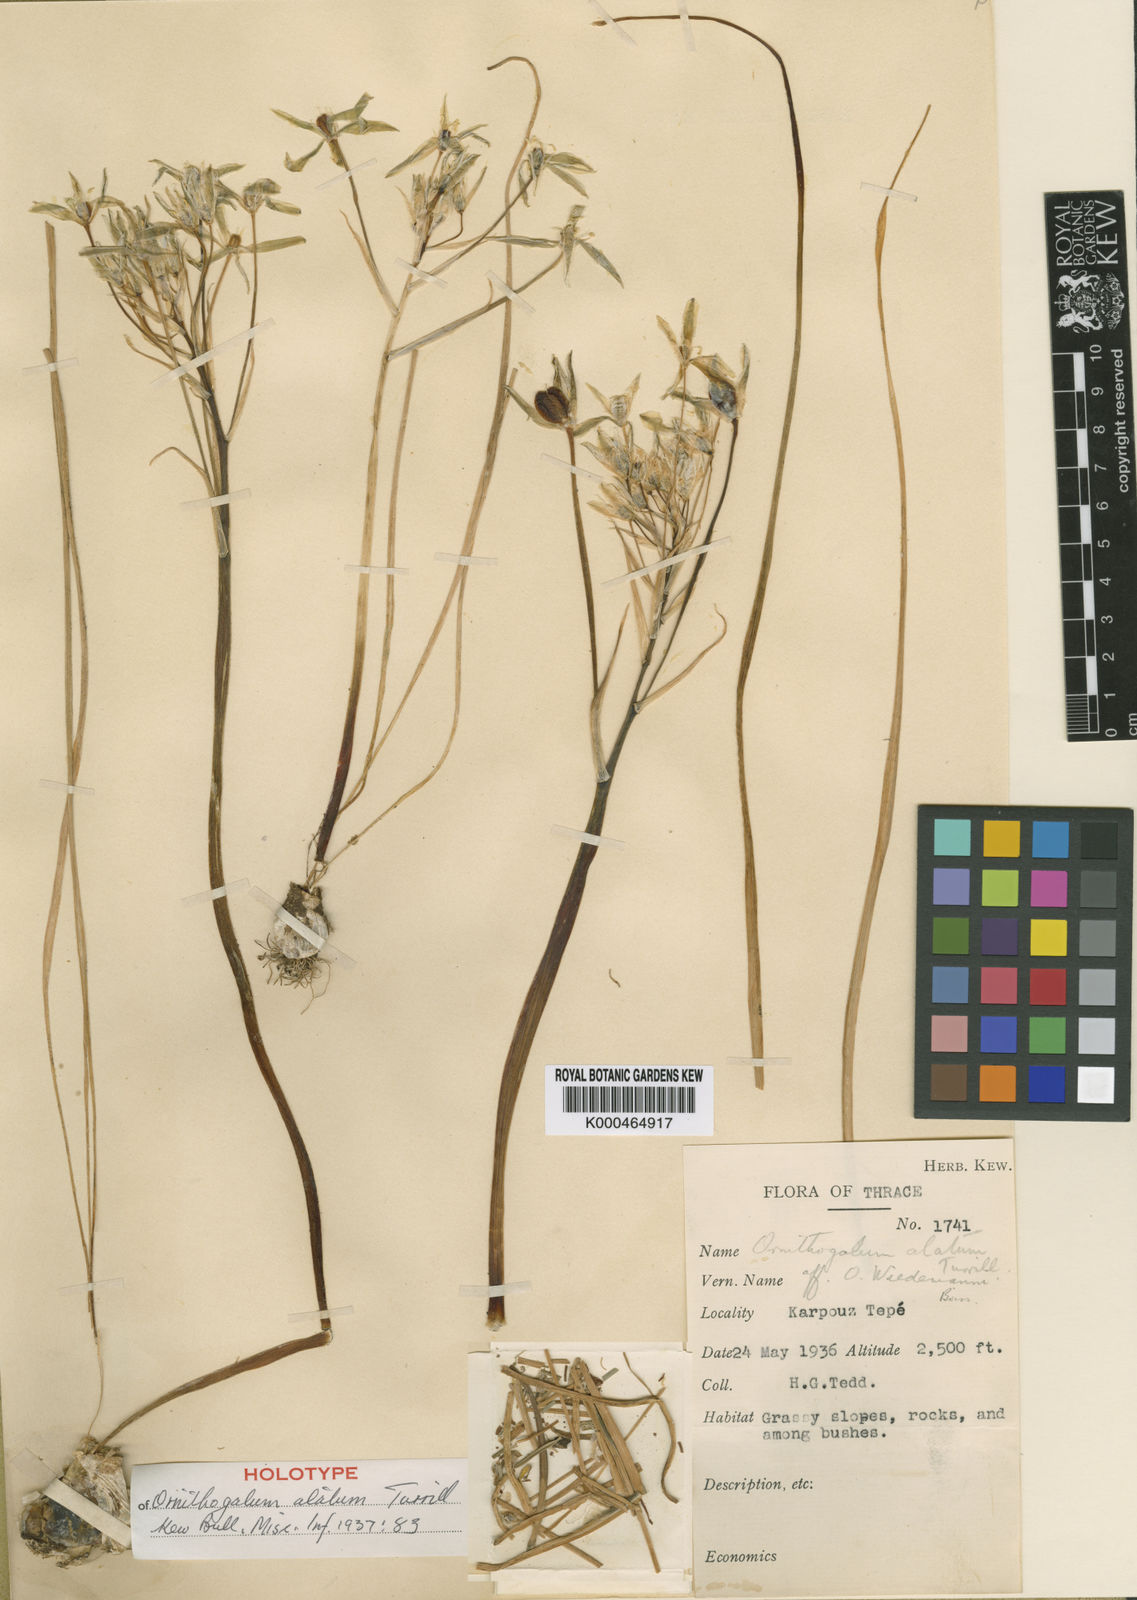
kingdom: Plantae
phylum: Tracheophyta
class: Liliopsida
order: Asparagales
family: Asparagaceae
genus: Ornithogalum
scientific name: Ornithogalum orthophyllum
